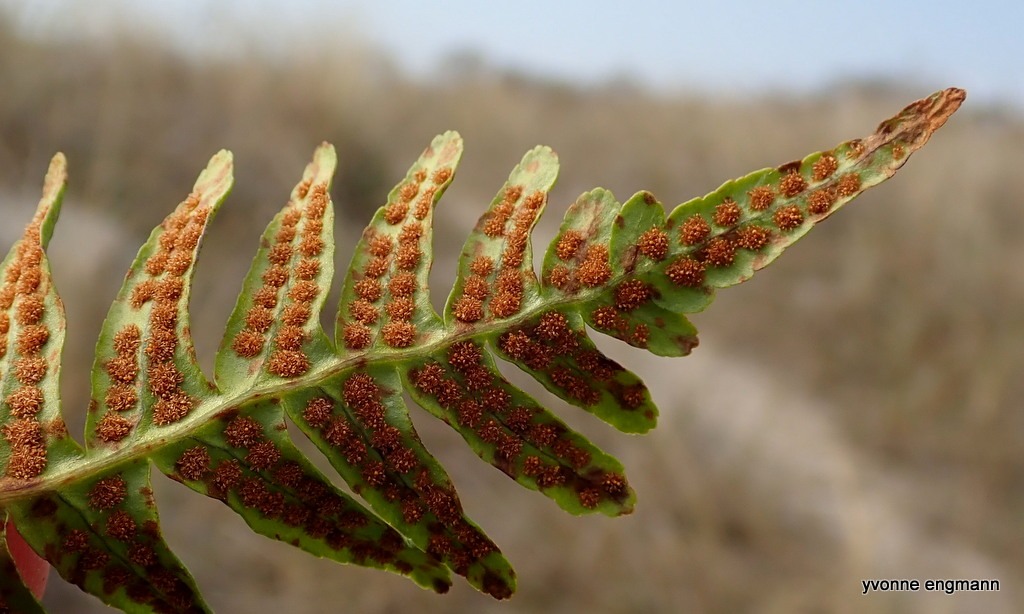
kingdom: Plantae
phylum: Tracheophyta
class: Polypodiopsida
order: Polypodiales
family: Polypodiaceae
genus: Polypodium
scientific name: Polypodium vulgare
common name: Almindelig engelsød
